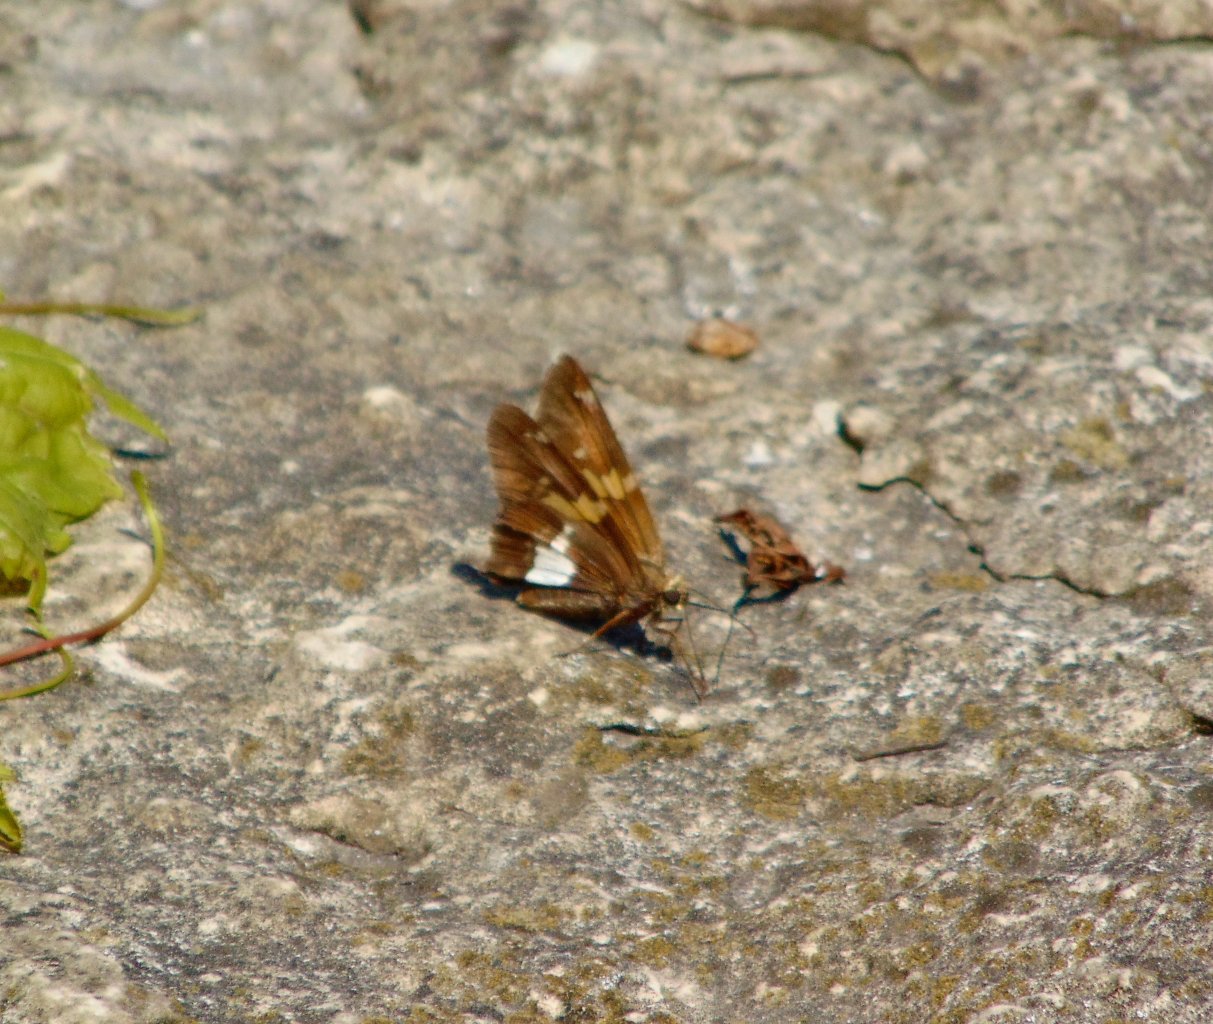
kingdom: Animalia
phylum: Arthropoda
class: Insecta
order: Lepidoptera
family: Hesperiidae
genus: Epargyreus
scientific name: Epargyreus clarus
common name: Silver-spotted Skipper
